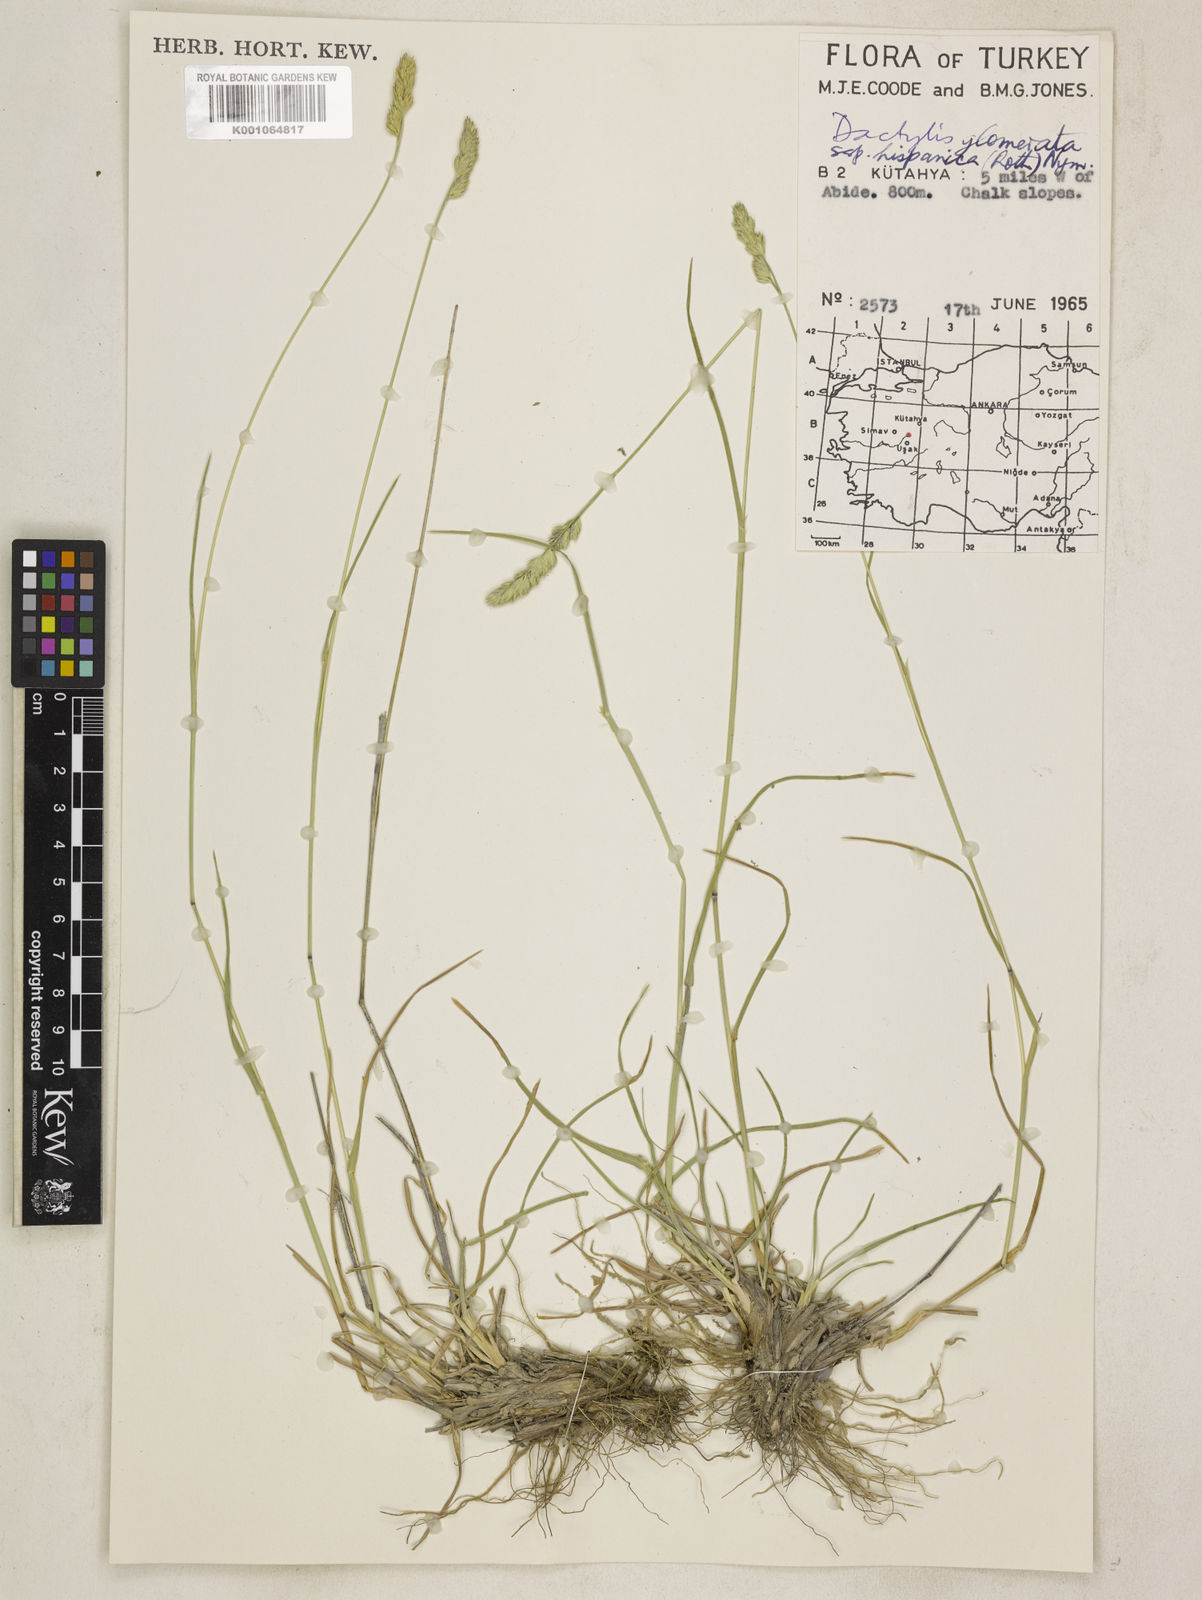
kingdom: Plantae
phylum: Tracheophyta
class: Liliopsida
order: Poales
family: Poaceae
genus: Dactylis
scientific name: Dactylis glomerata
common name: Orchardgrass
